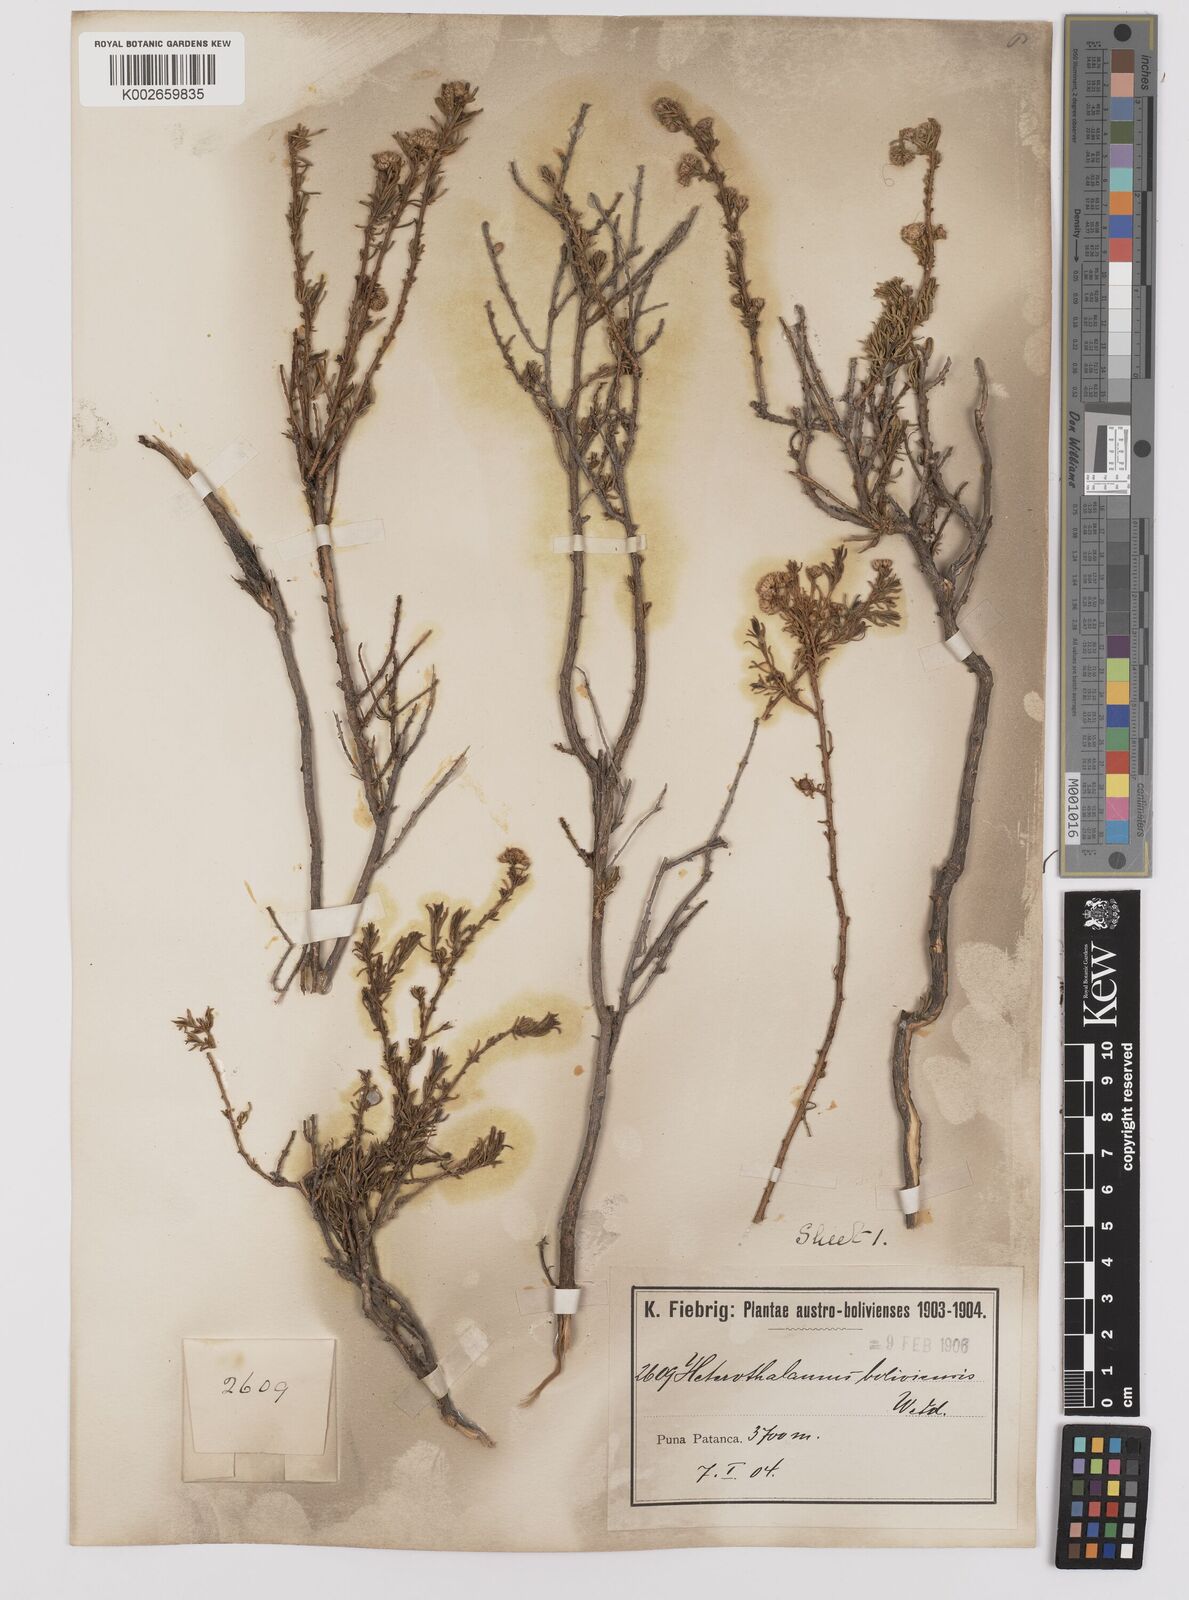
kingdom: Plantae
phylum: Tracheophyta
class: Magnoliopsida
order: Asterales
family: Asteraceae
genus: Baccharis
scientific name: Baccharis bolivensis
